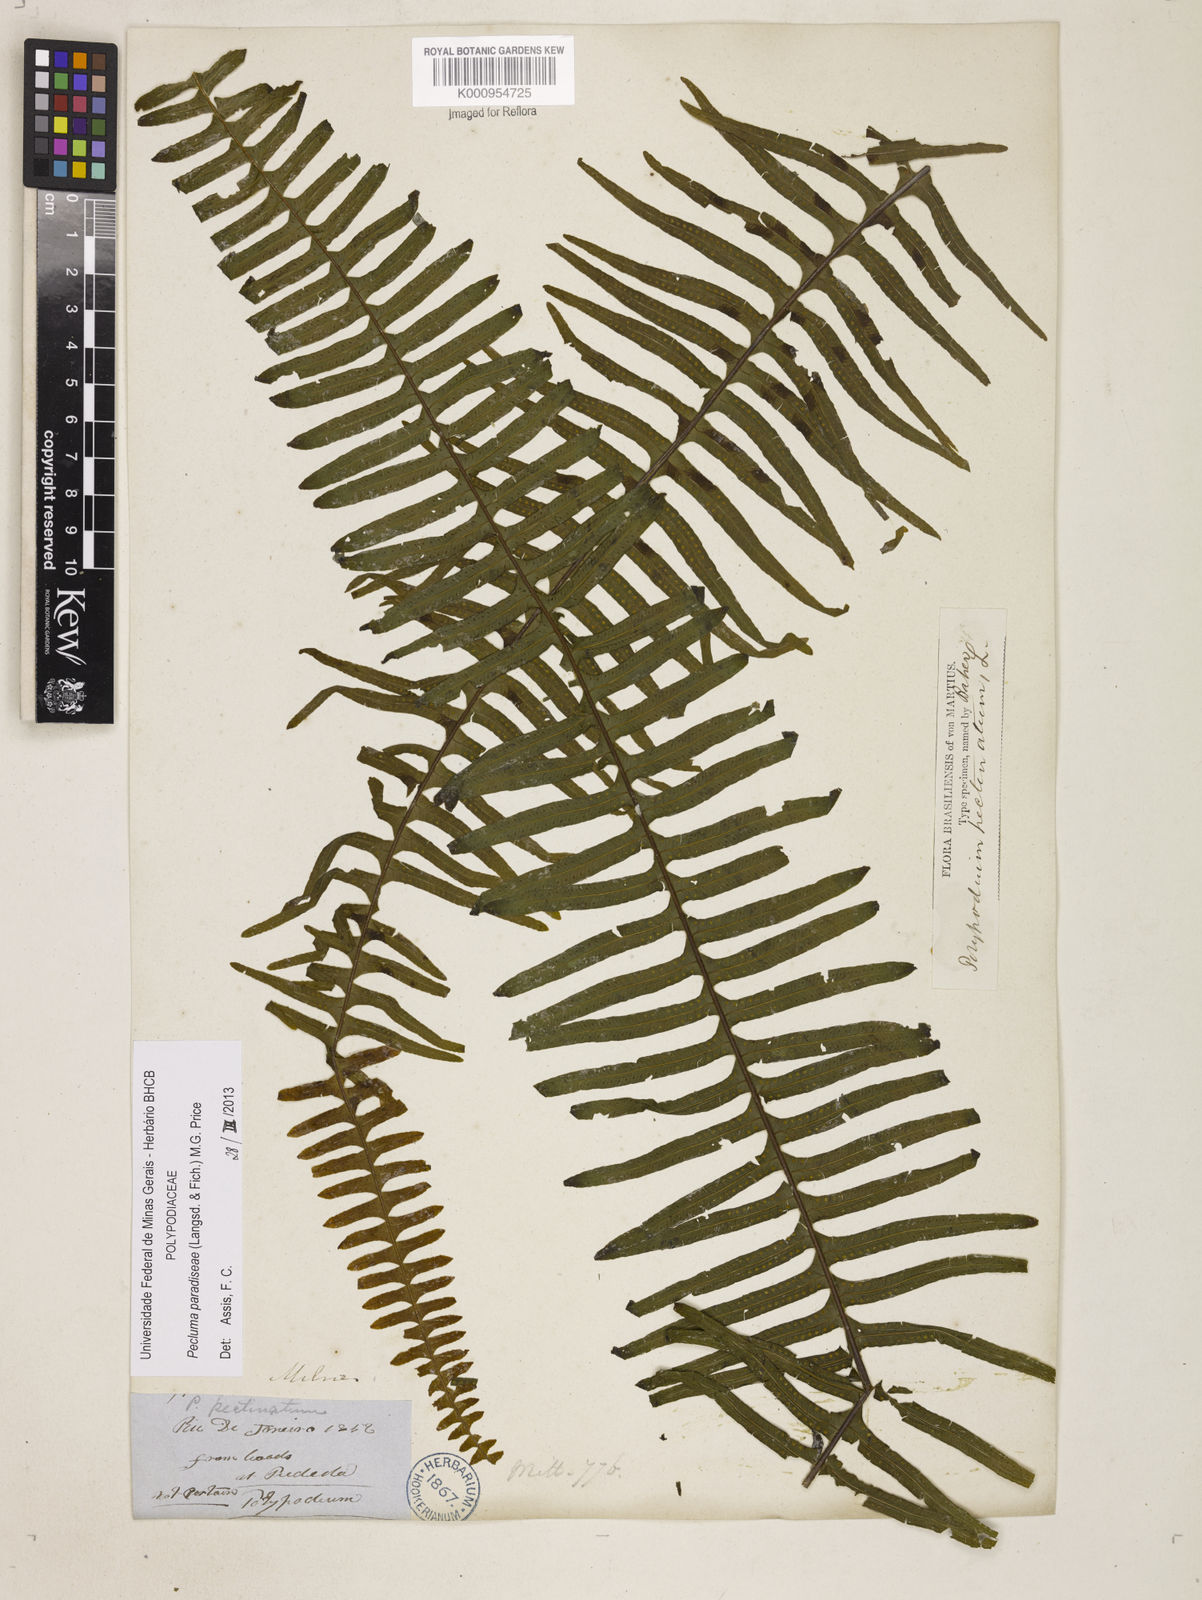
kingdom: Plantae
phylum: Tracheophyta
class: Polypodiopsida
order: Polypodiales
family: Polypodiaceae
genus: Pecluma
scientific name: Pecluma paradiseae
